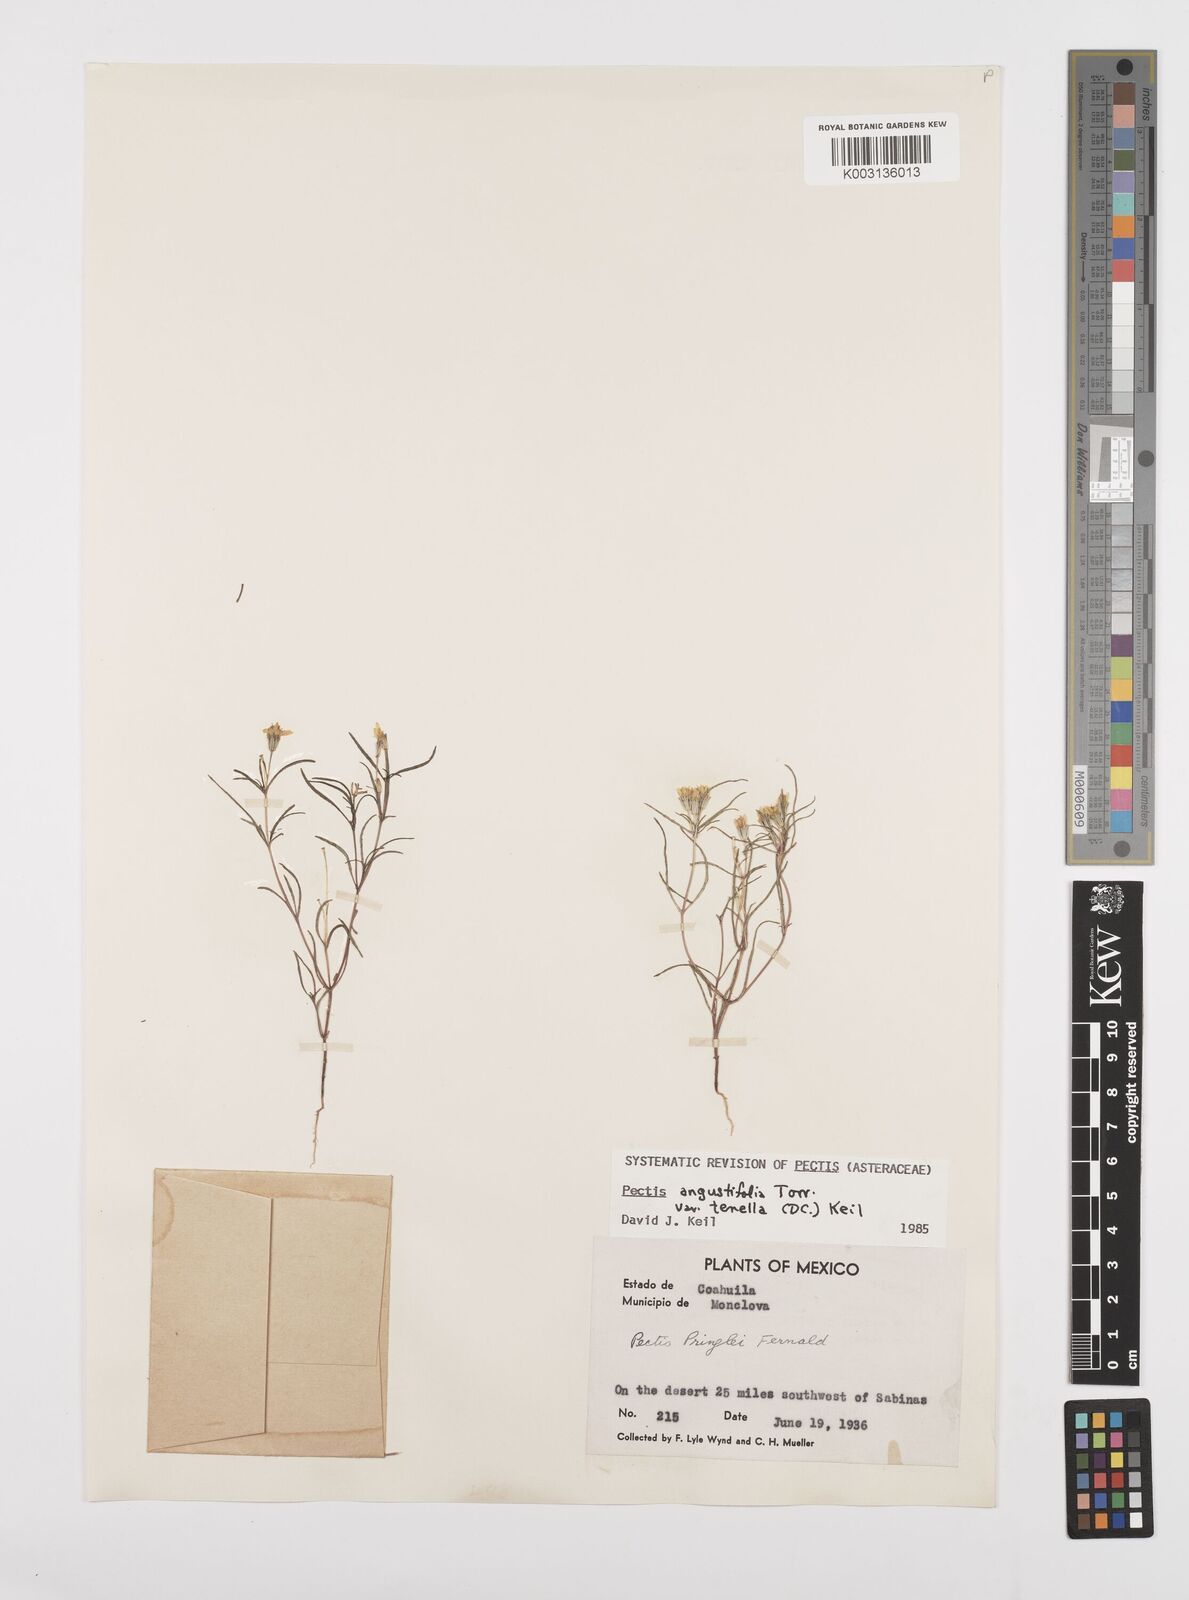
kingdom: Plantae
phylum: Tracheophyta
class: Magnoliopsida
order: Asterales
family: Asteraceae
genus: Pectis
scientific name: Pectis pringlei
